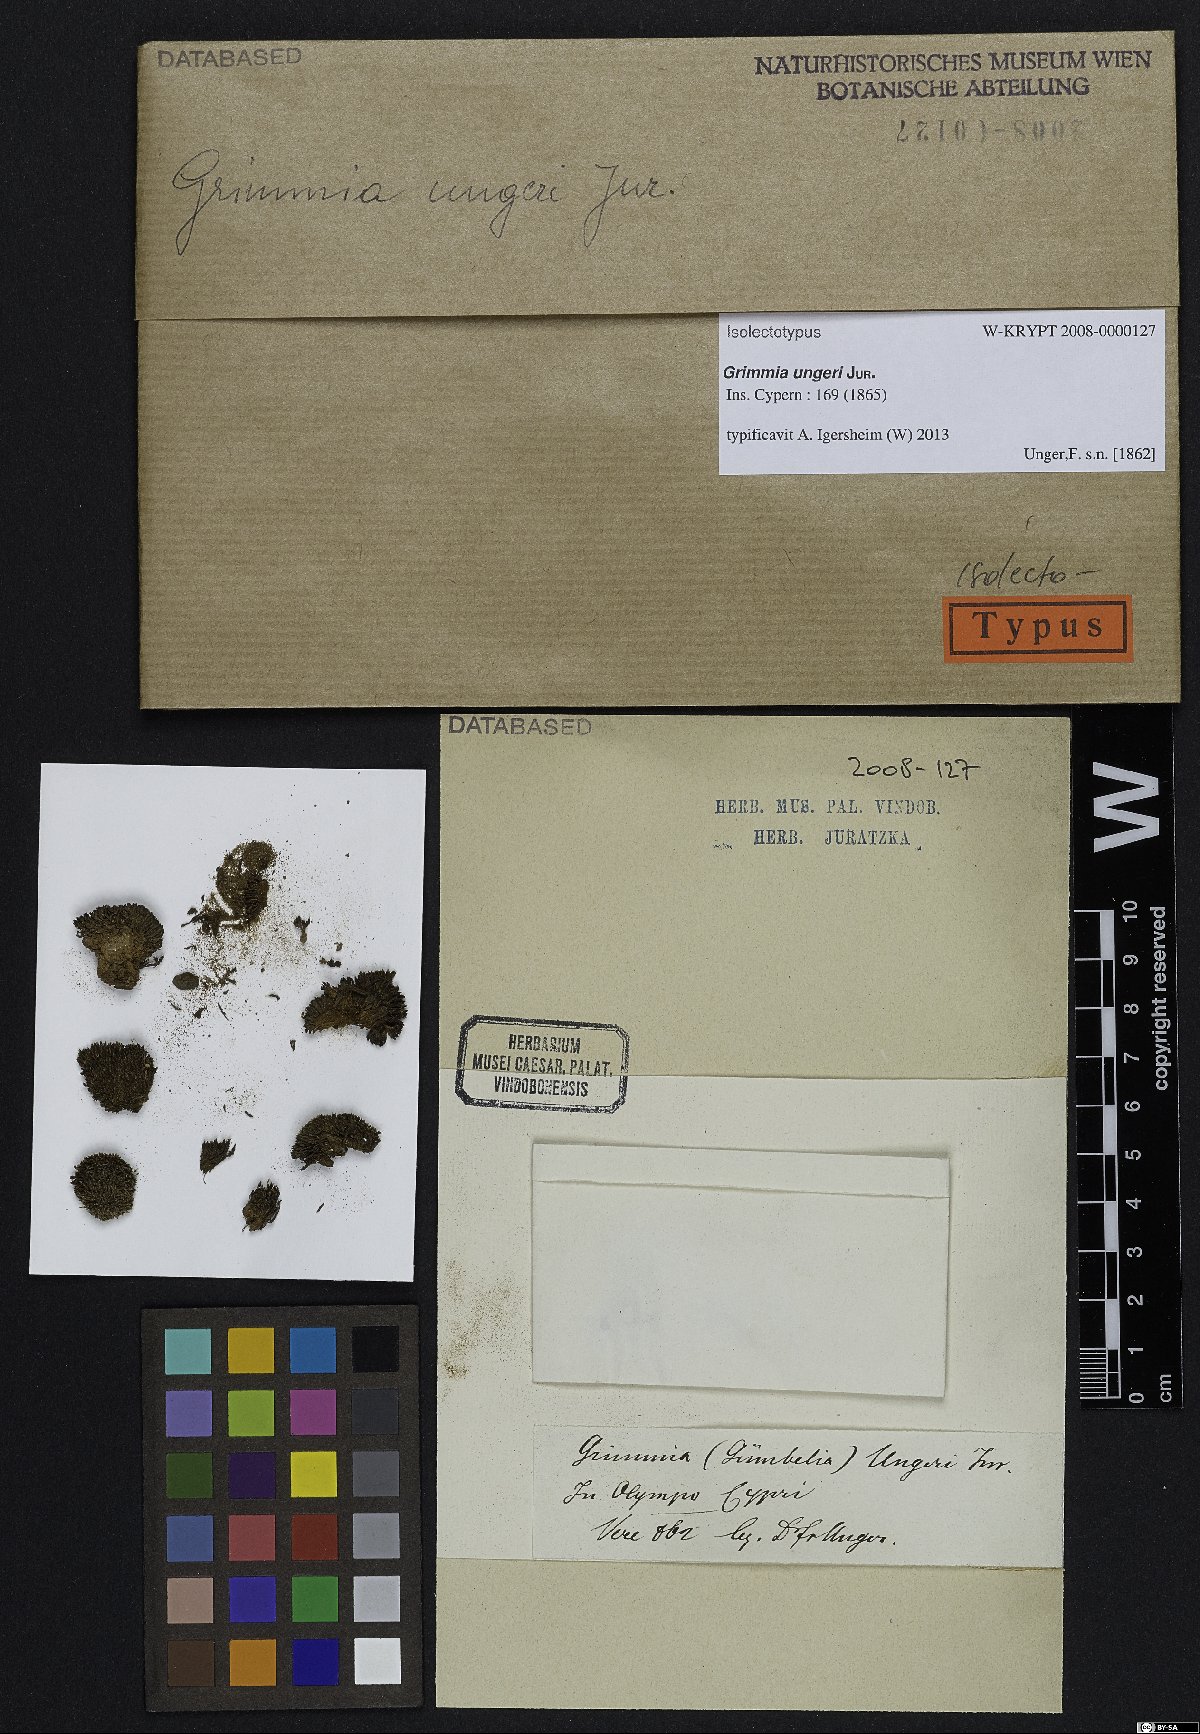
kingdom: Plantae
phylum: Bryophyta
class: Bryopsida
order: Grimmiales
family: Grimmiaceae
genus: Grimmia
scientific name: Grimmia ungeri
